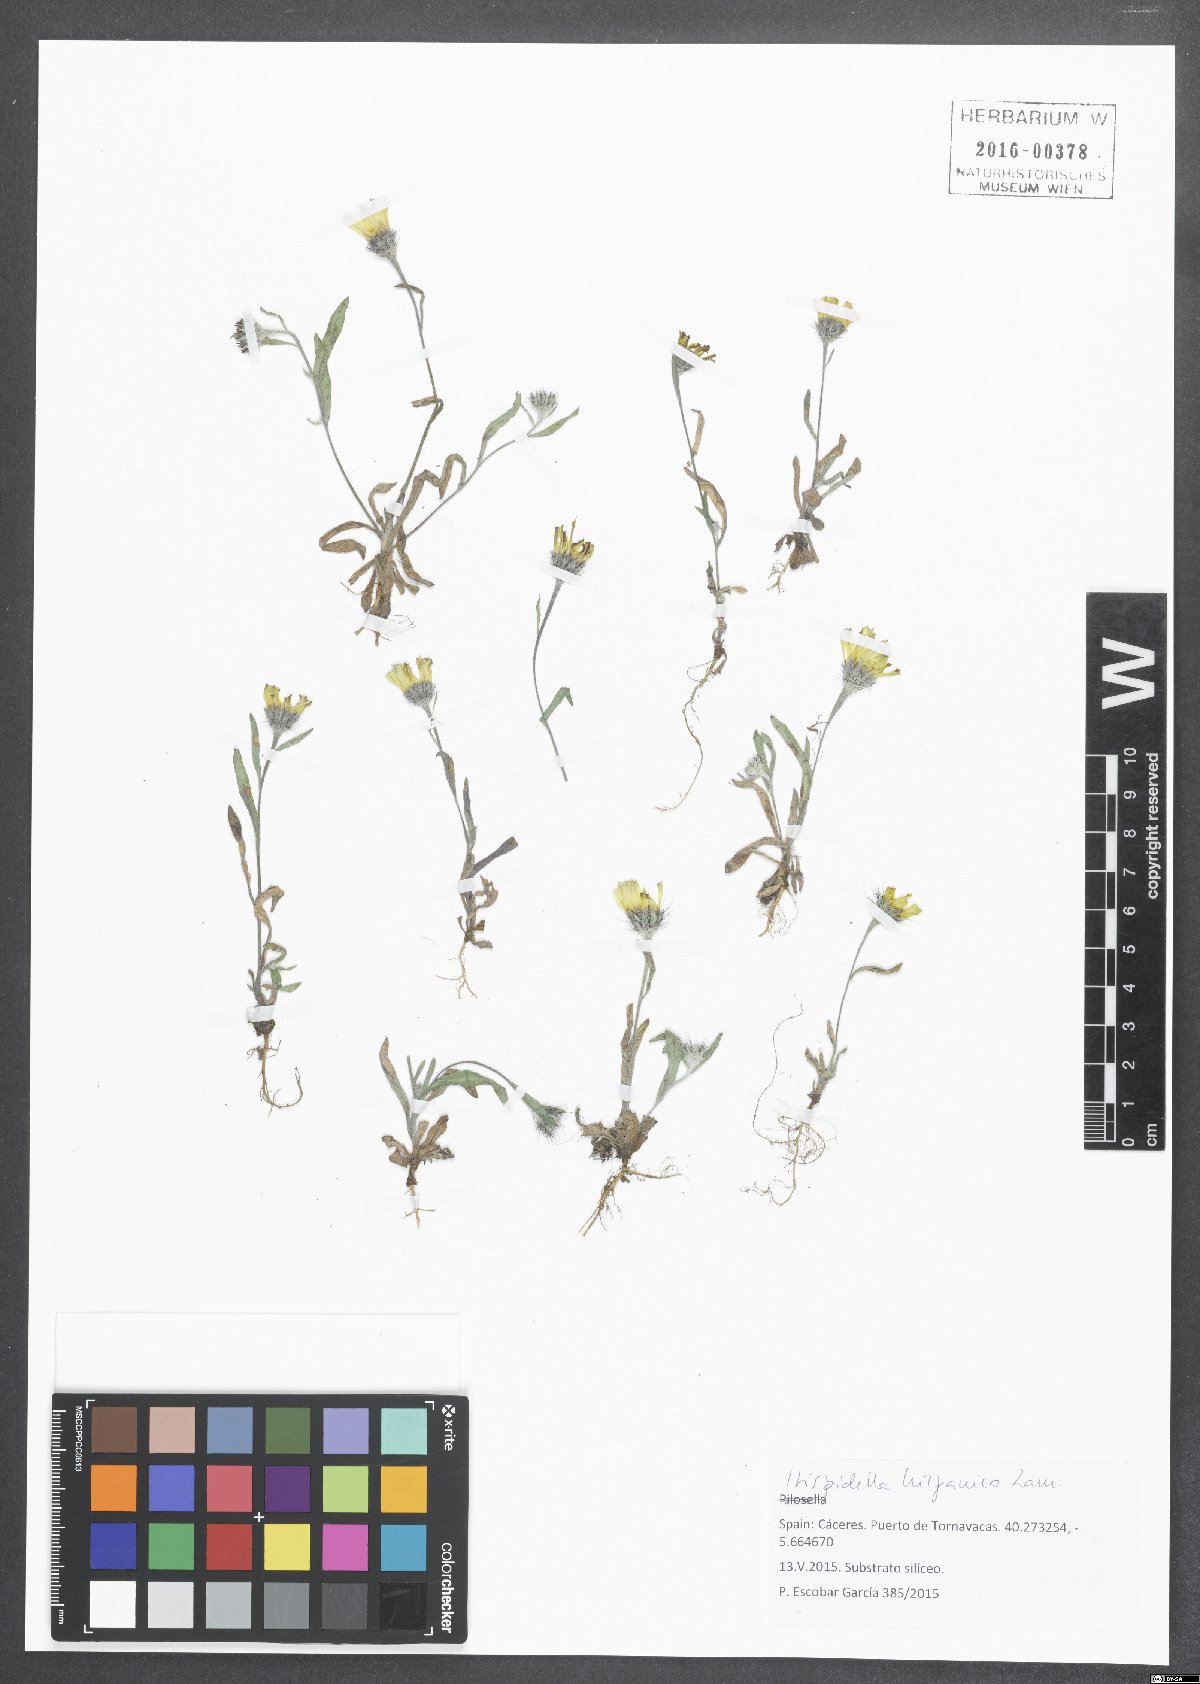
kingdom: Plantae
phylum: Tracheophyta
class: Magnoliopsida
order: Asterales
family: Asteraceae
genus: Hispidella
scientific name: Hispidella hispanica
